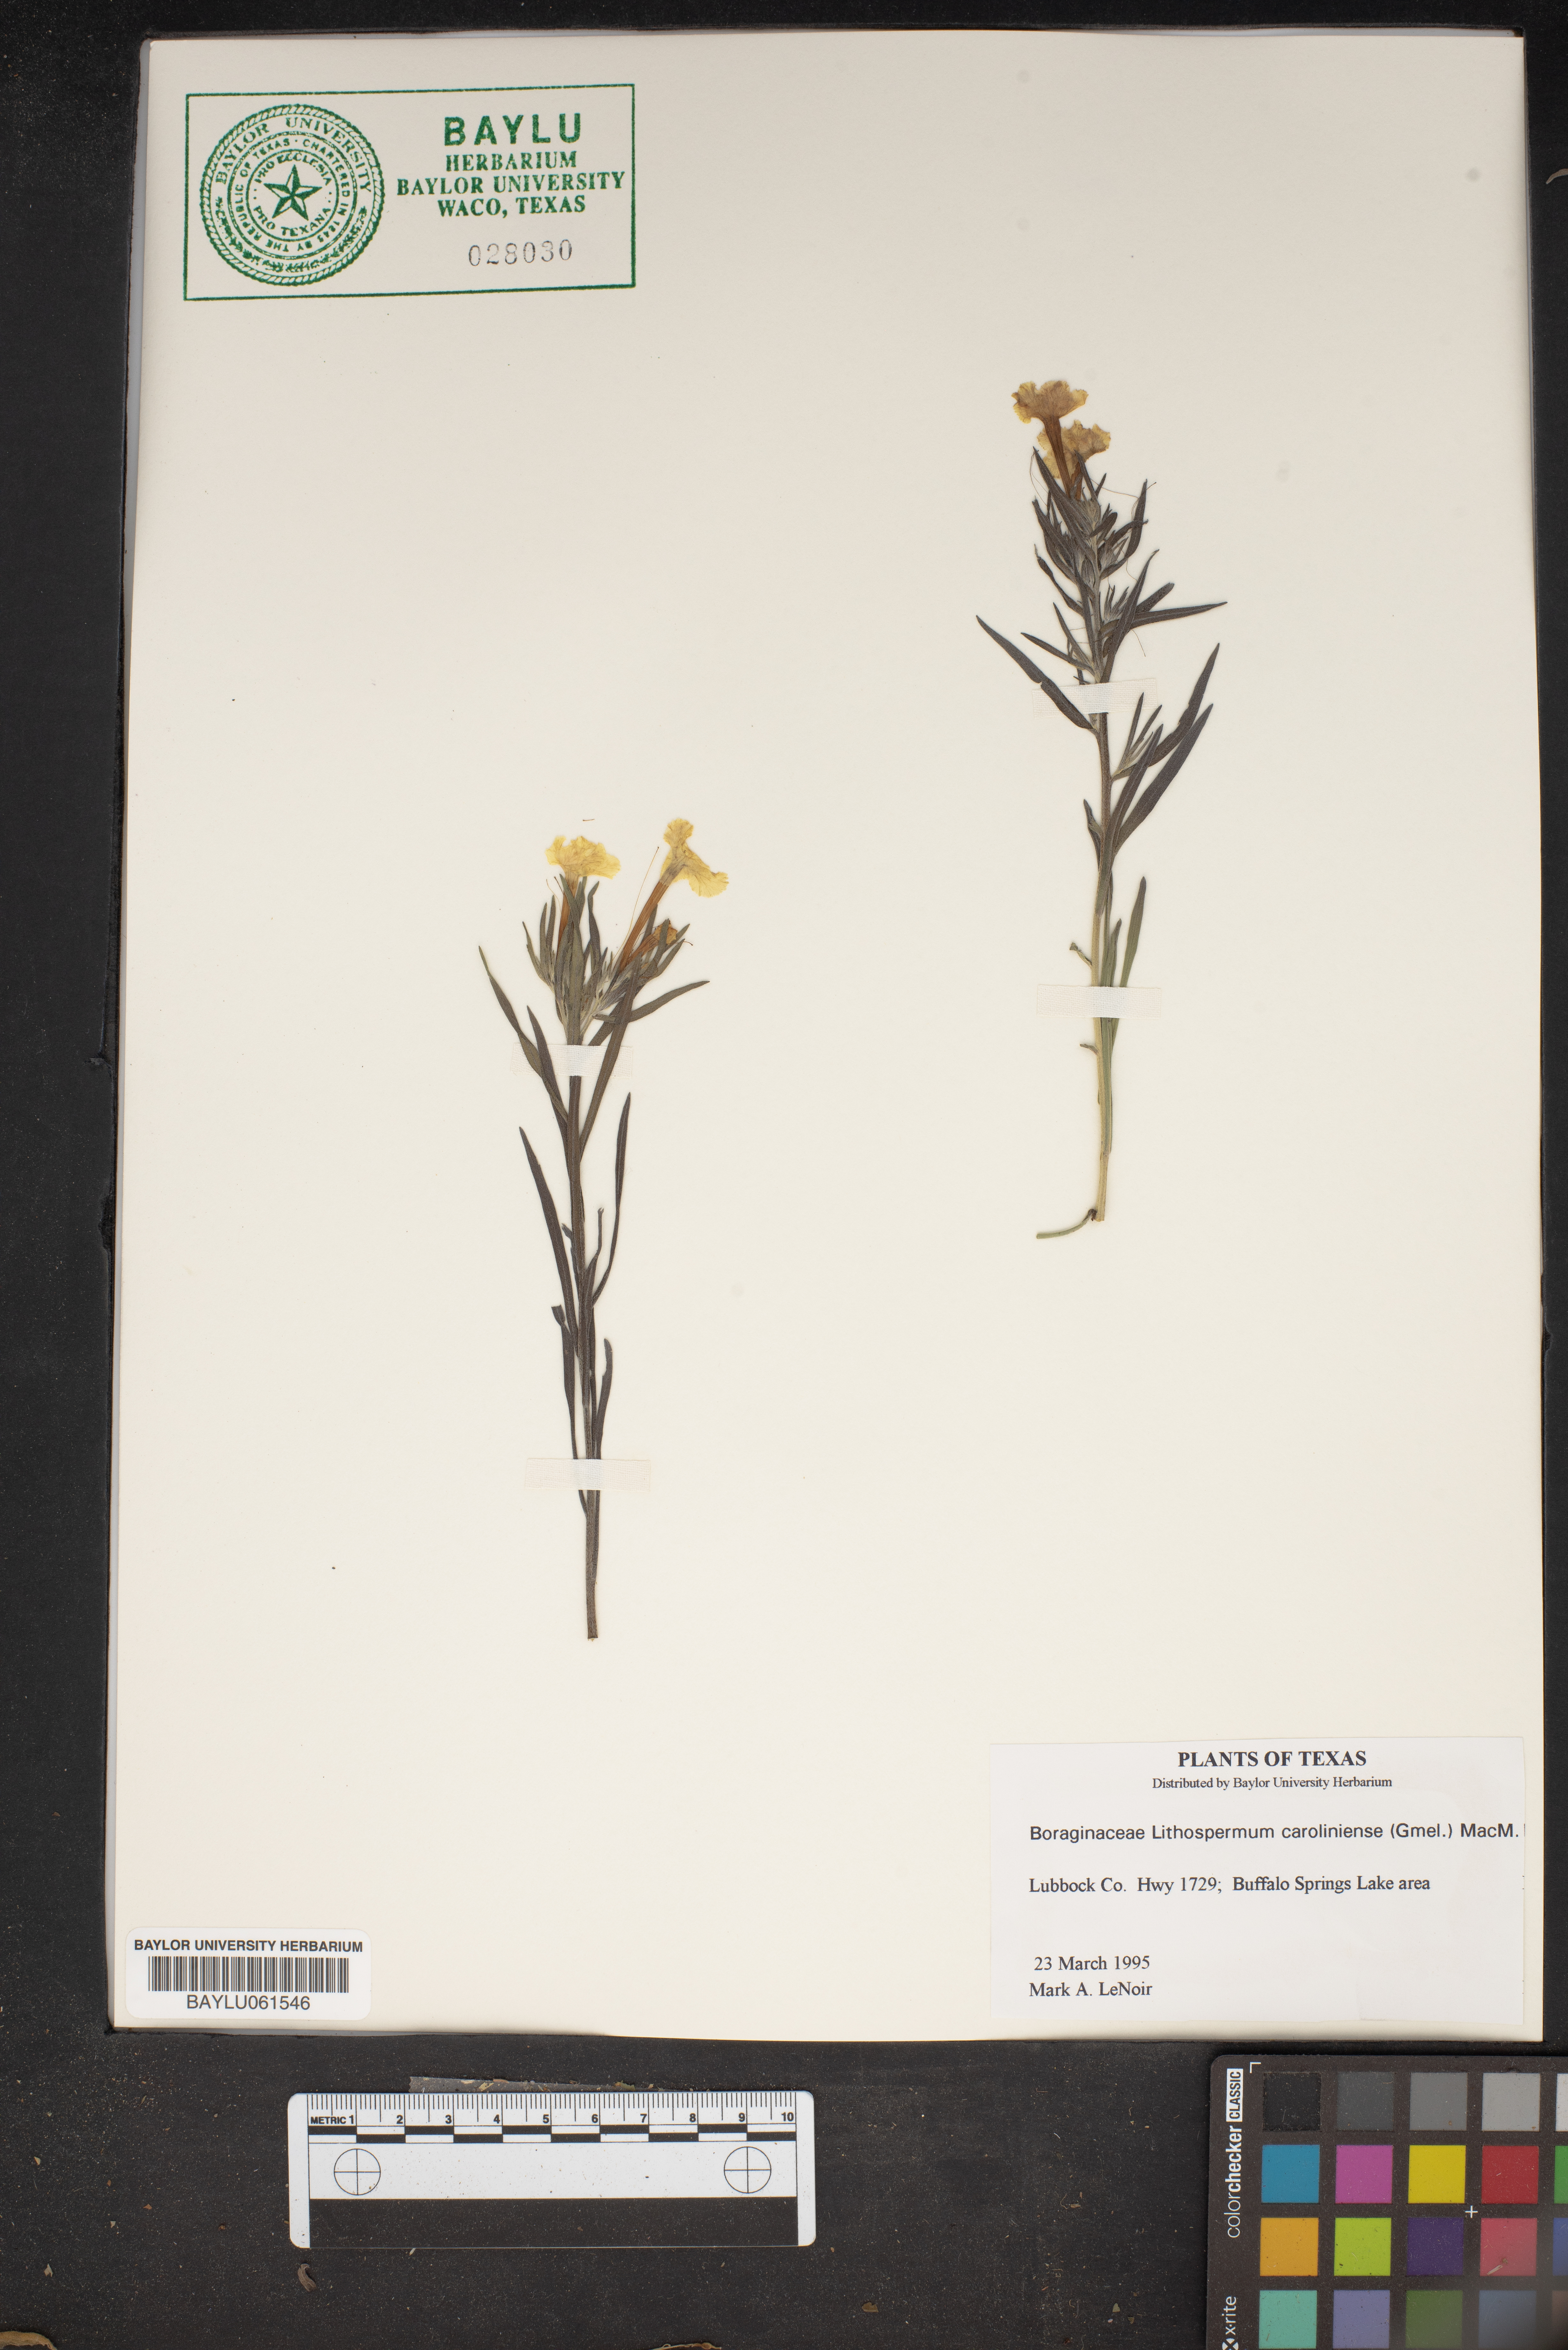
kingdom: Plantae
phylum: Tracheophyta
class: Magnoliopsida
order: Boraginales
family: Boraginaceae
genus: Lithospermum
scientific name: Lithospermum caroliniense
